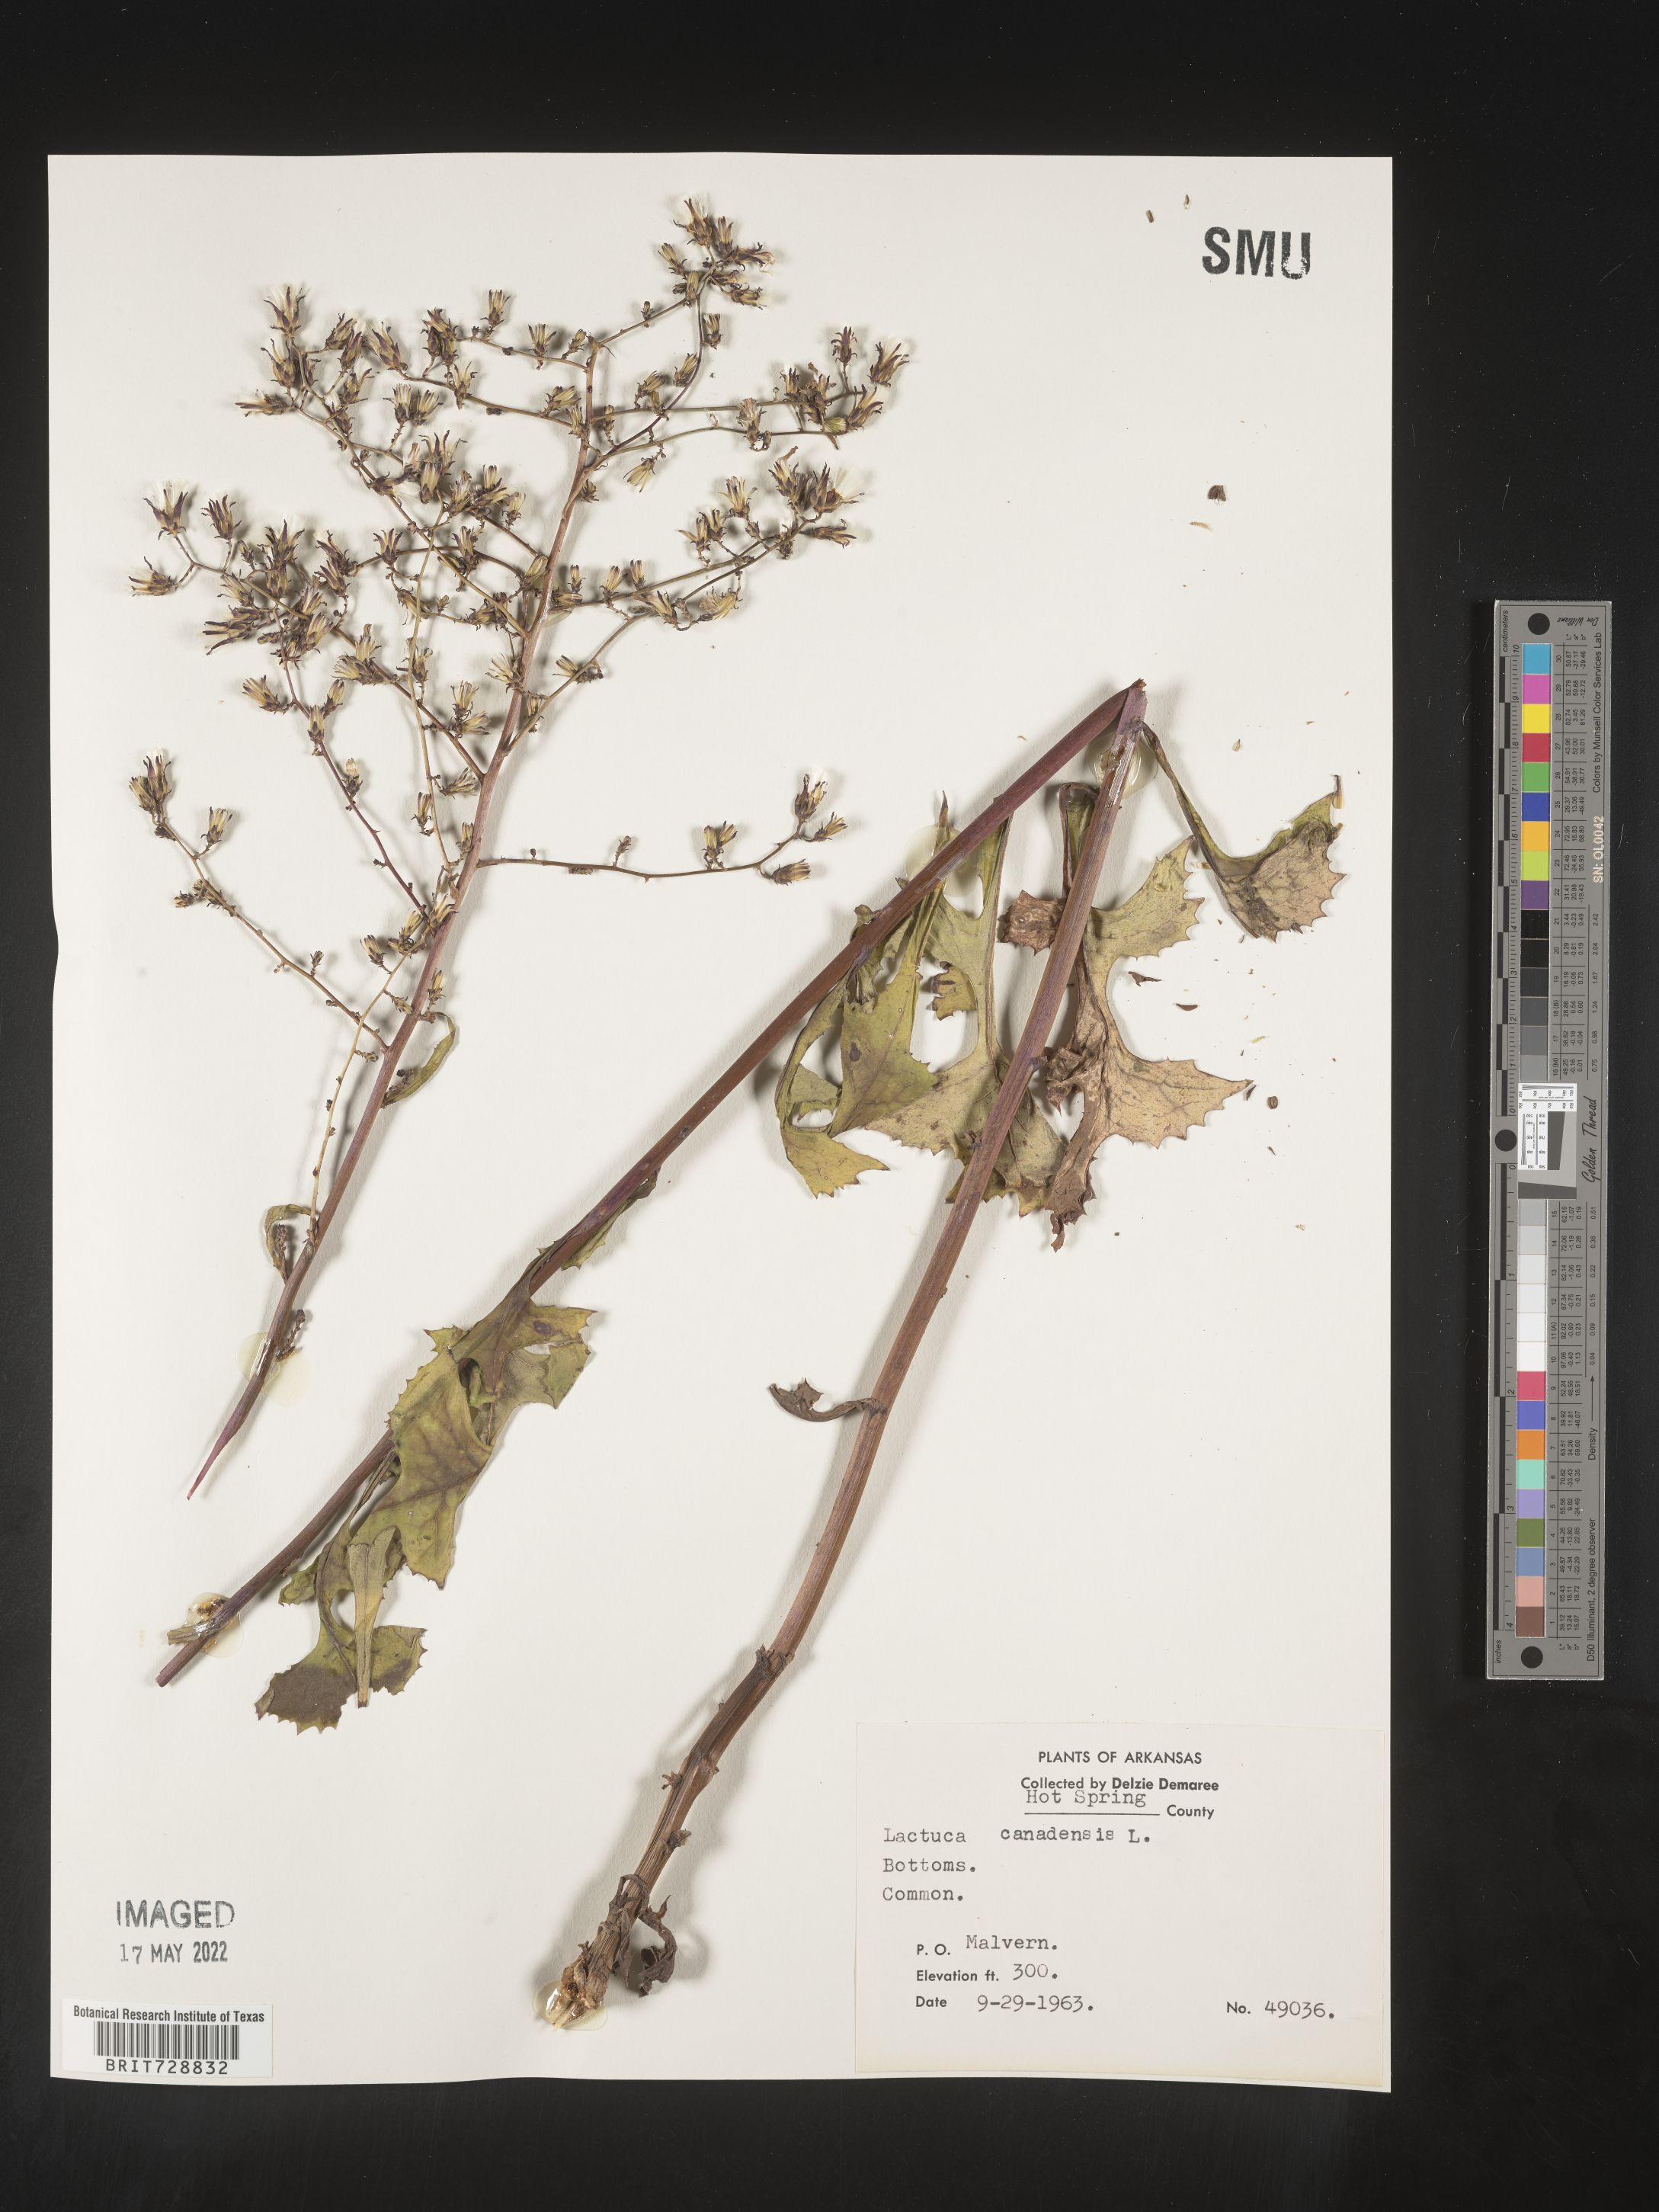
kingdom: Plantae
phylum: Tracheophyta
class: Magnoliopsida
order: Asterales
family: Asteraceae
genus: Lactuca
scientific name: Lactuca canadensis
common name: Canada lettuce
